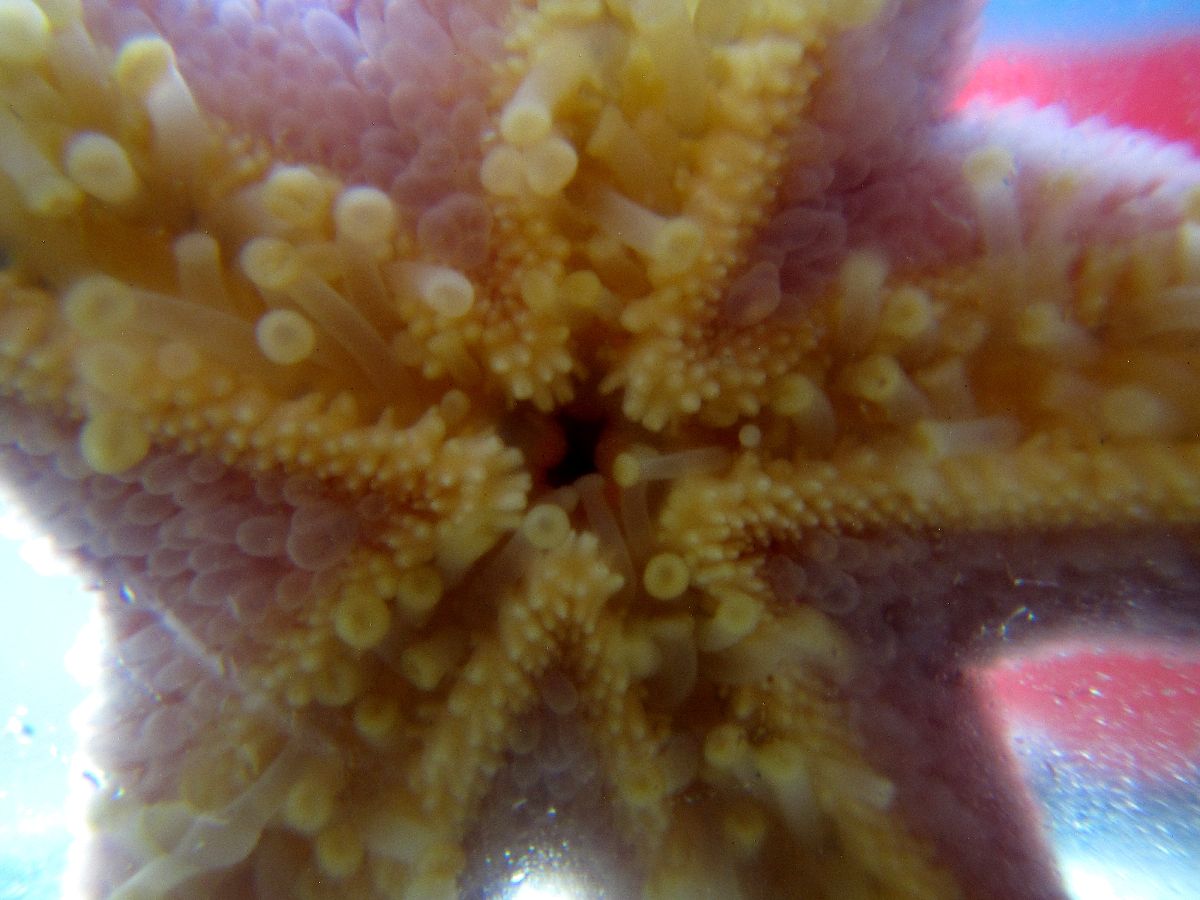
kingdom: Animalia
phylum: Echinodermata
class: Asteroidea
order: Spinulosida
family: Echinasteridae
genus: Henricia
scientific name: Henricia
